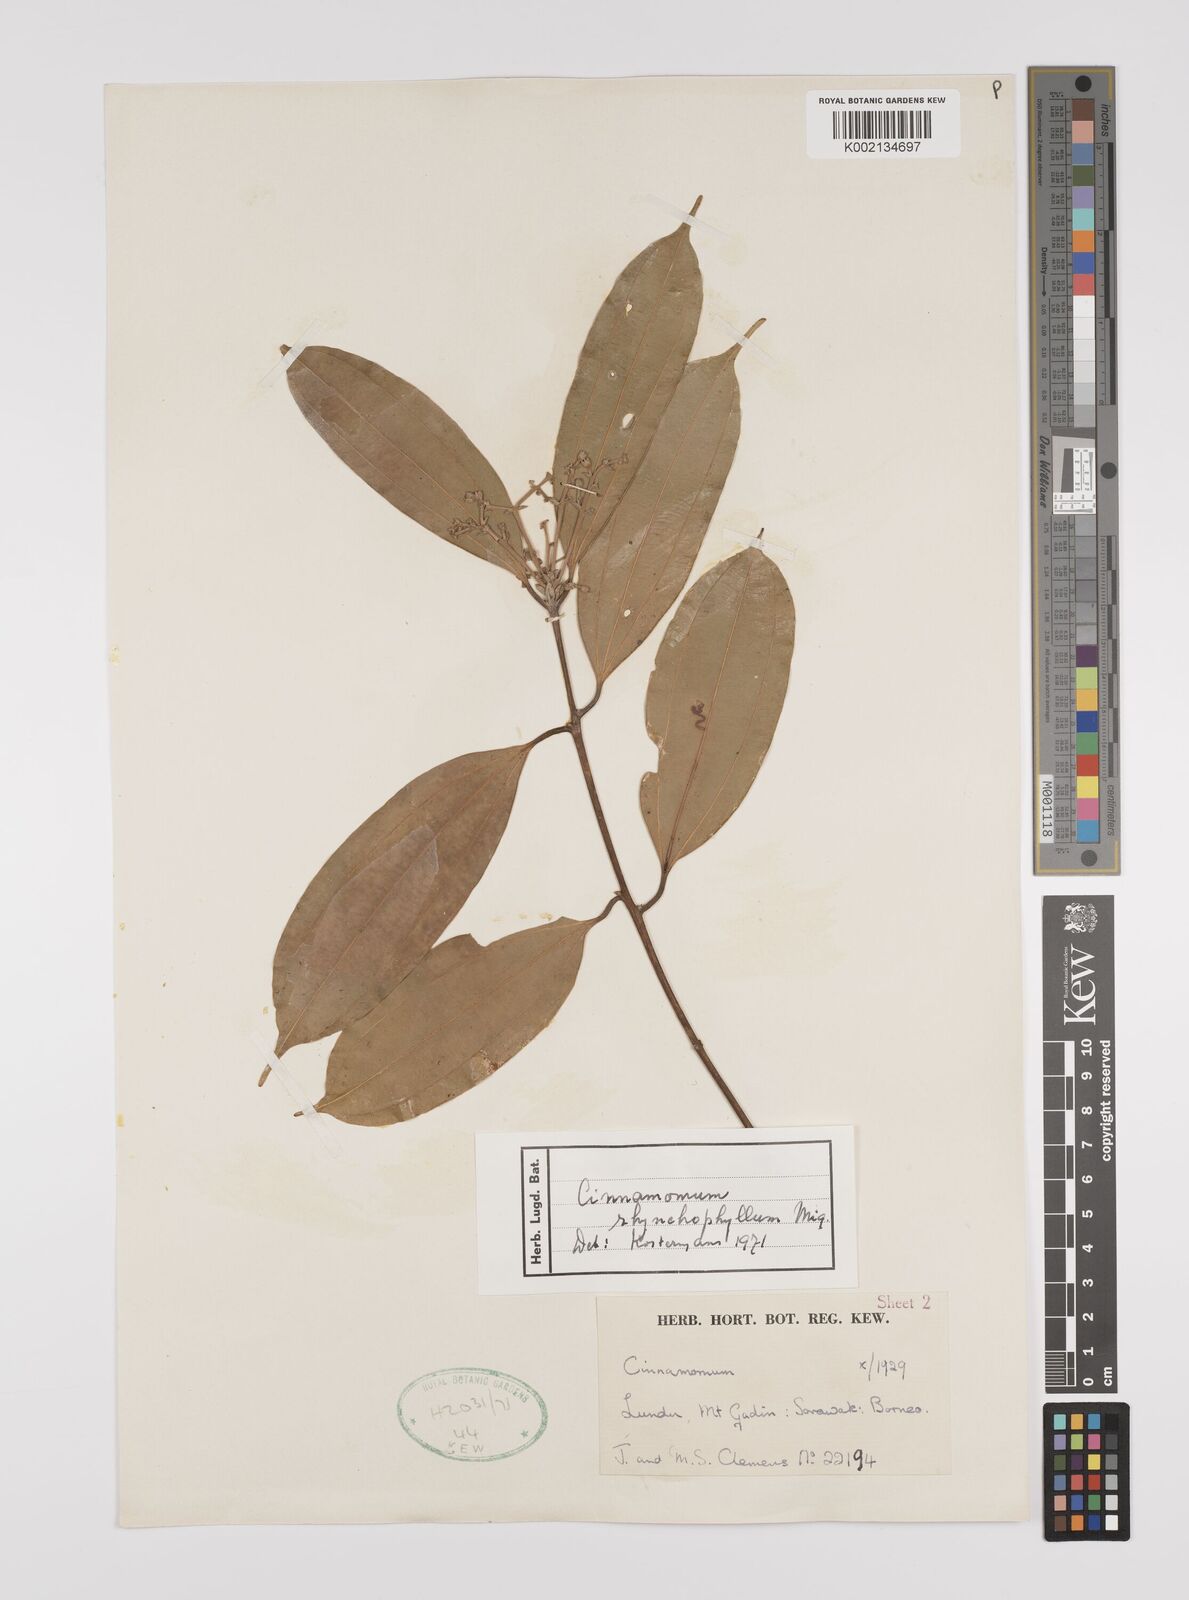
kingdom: Plantae
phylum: Tracheophyta
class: Magnoliopsida
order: Laurales
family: Lauraceae
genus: Cinnamomum
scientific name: Cinnamomum rhynchophyllum
